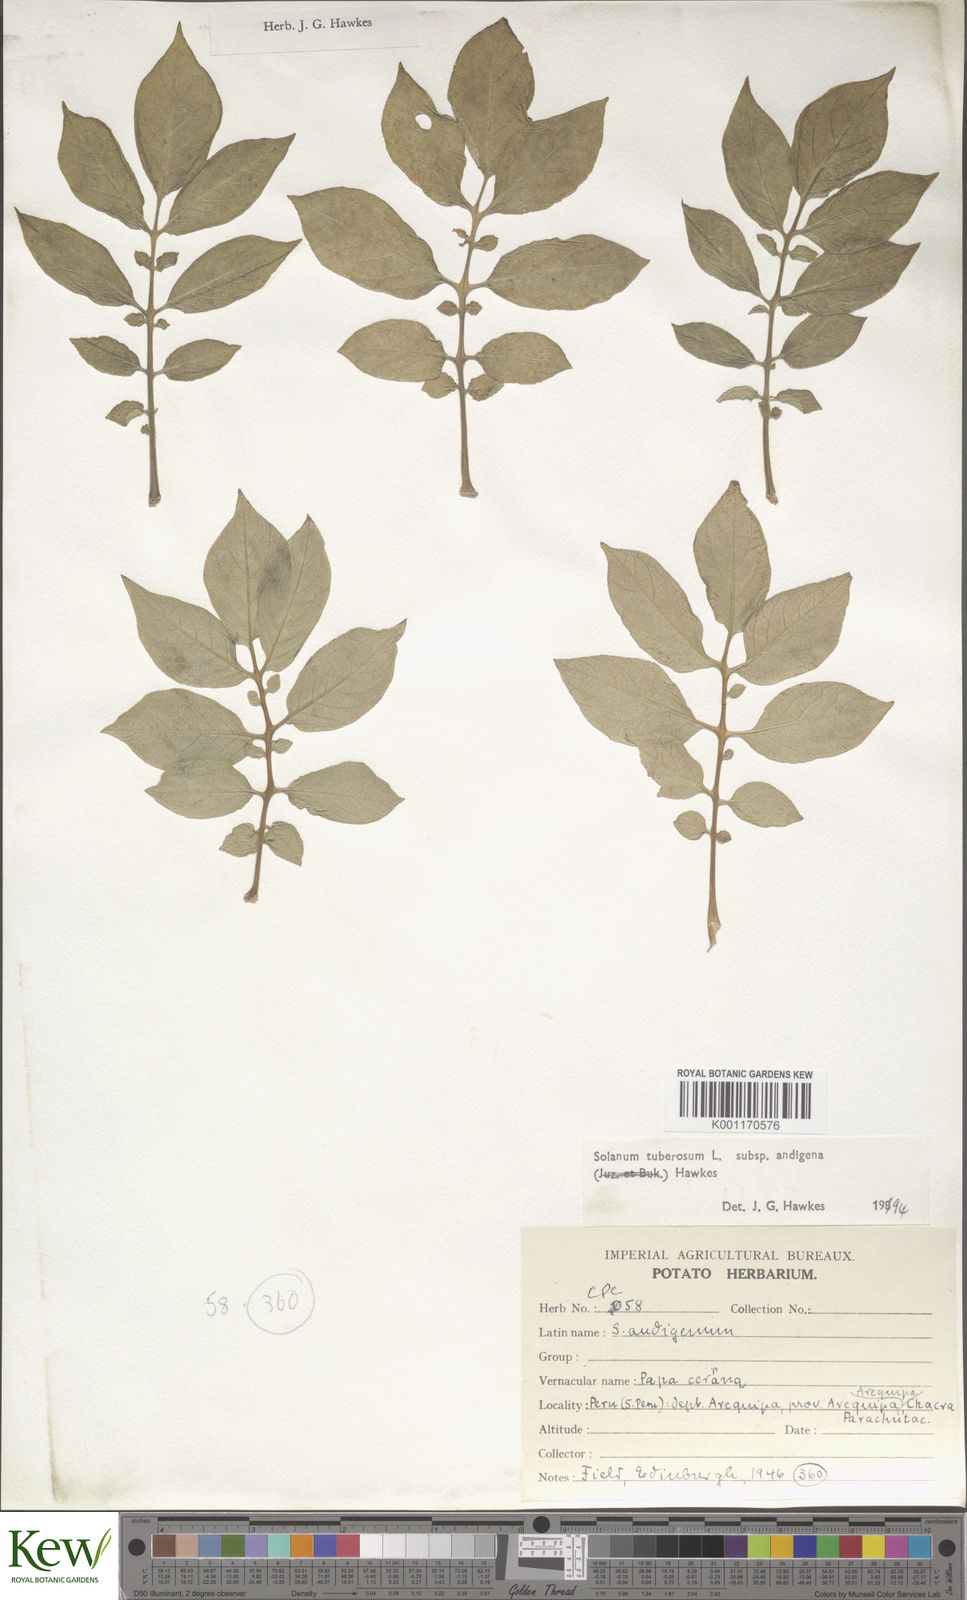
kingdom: Plantae
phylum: Tracheophyta
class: Magnoliopsida
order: Solanales
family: Solanaceae
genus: Solanum
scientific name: Solanum tuberosum
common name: Potato
